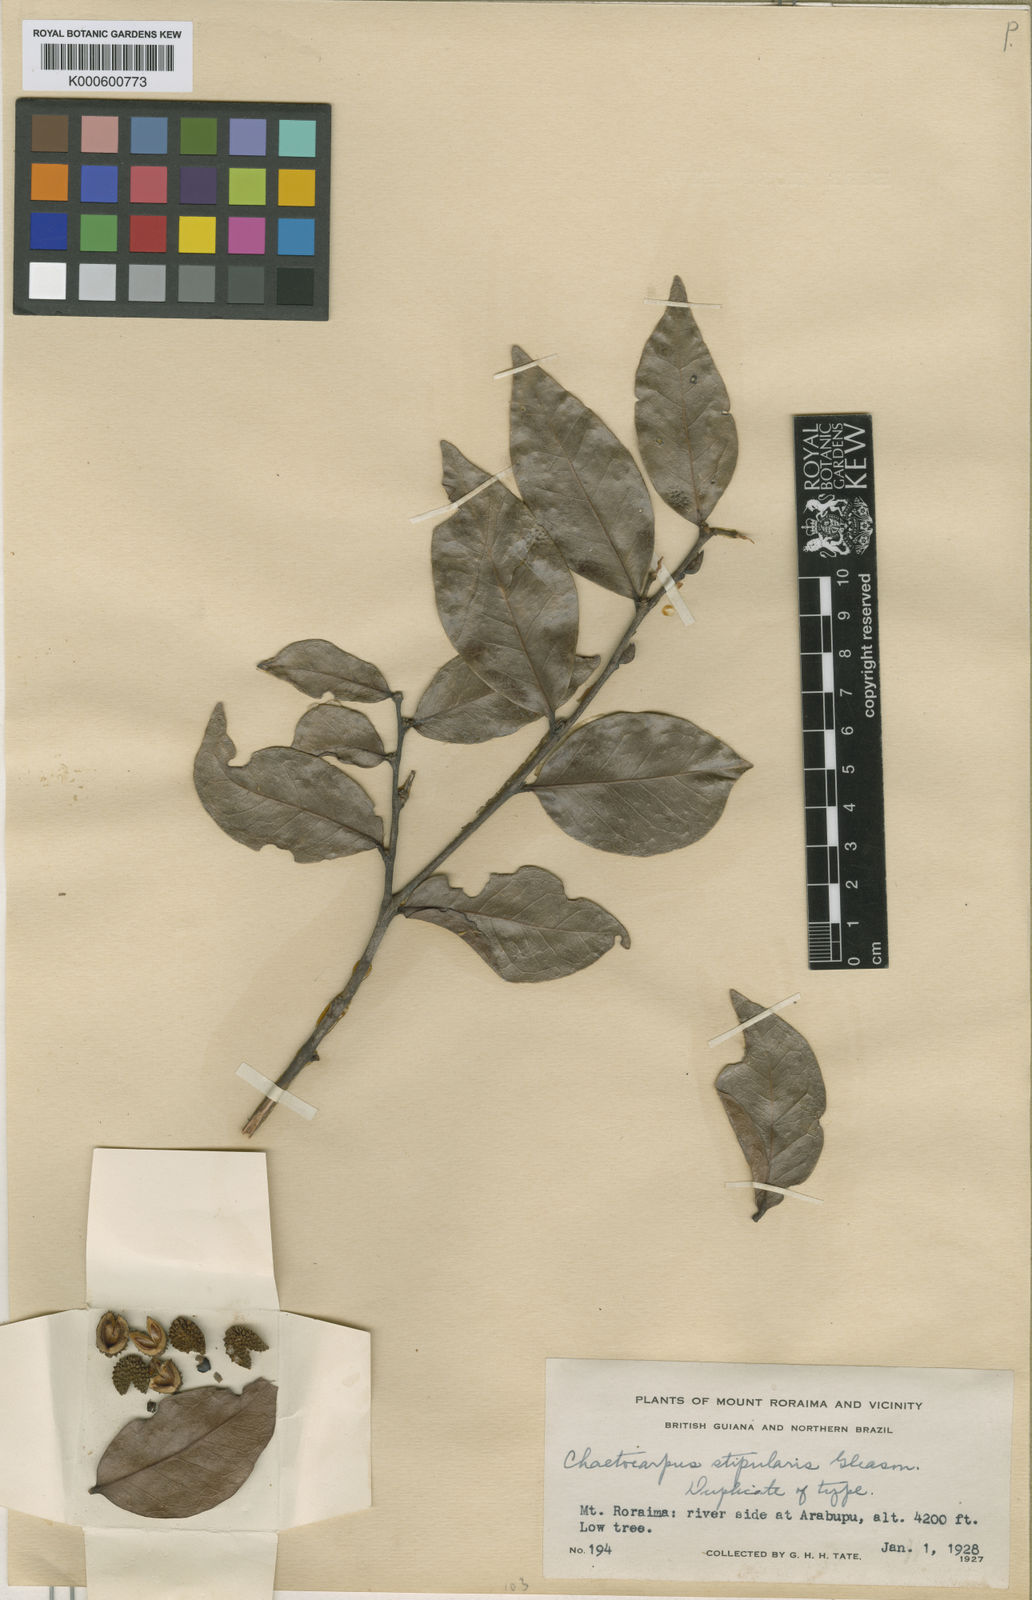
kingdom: Plantae
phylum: Tracheophyta
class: Magnoliopsida
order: Malpighiales
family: Peraceae
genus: Chaetocarpus
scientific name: Chaetocarpus schomburgkianus
